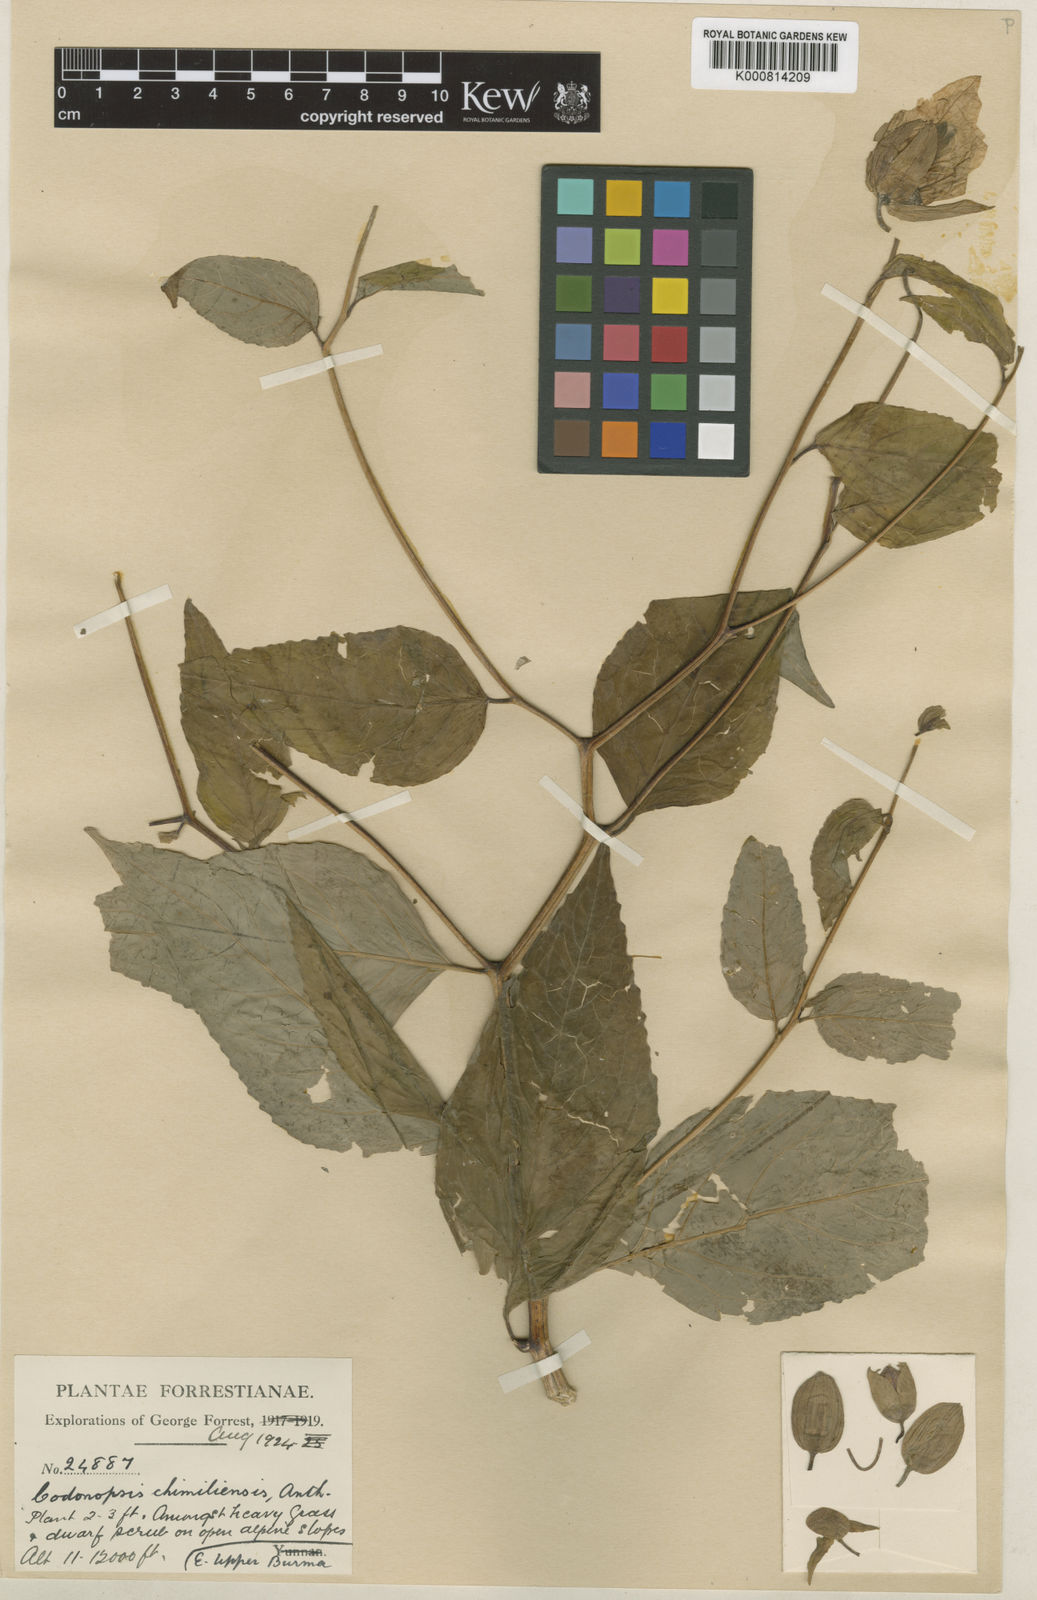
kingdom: Plantae
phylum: Tracheophyta
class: Magnoliopsida
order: Asterales
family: Campanulaceae
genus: Codonopsis
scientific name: Codonopsis chimiliensis
